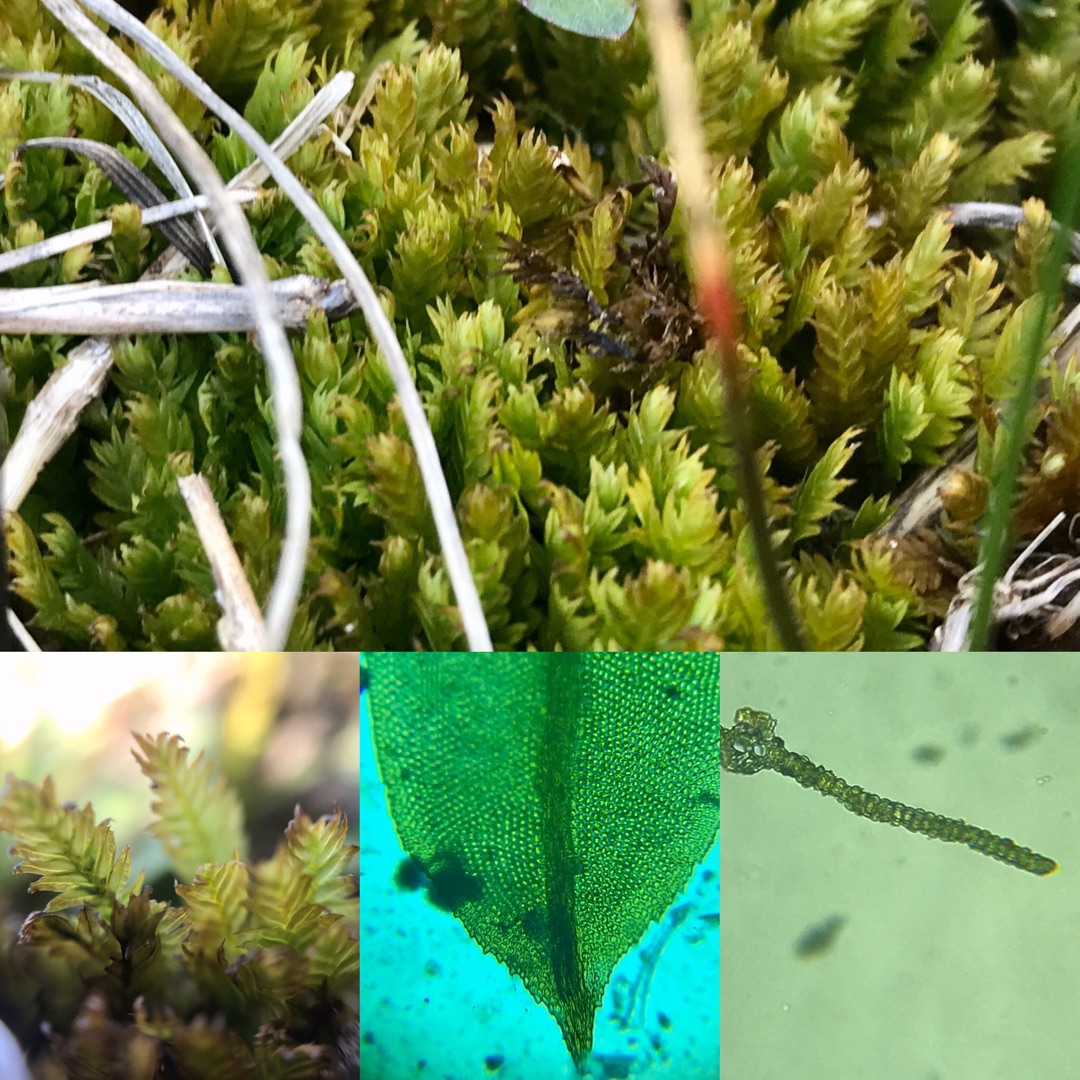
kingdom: Plantae
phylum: Bryophyta
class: Bryopsida
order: Dicranales
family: Fissidentaceae
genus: Fissidens
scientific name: Fissidens dubius
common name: Tør rademos
